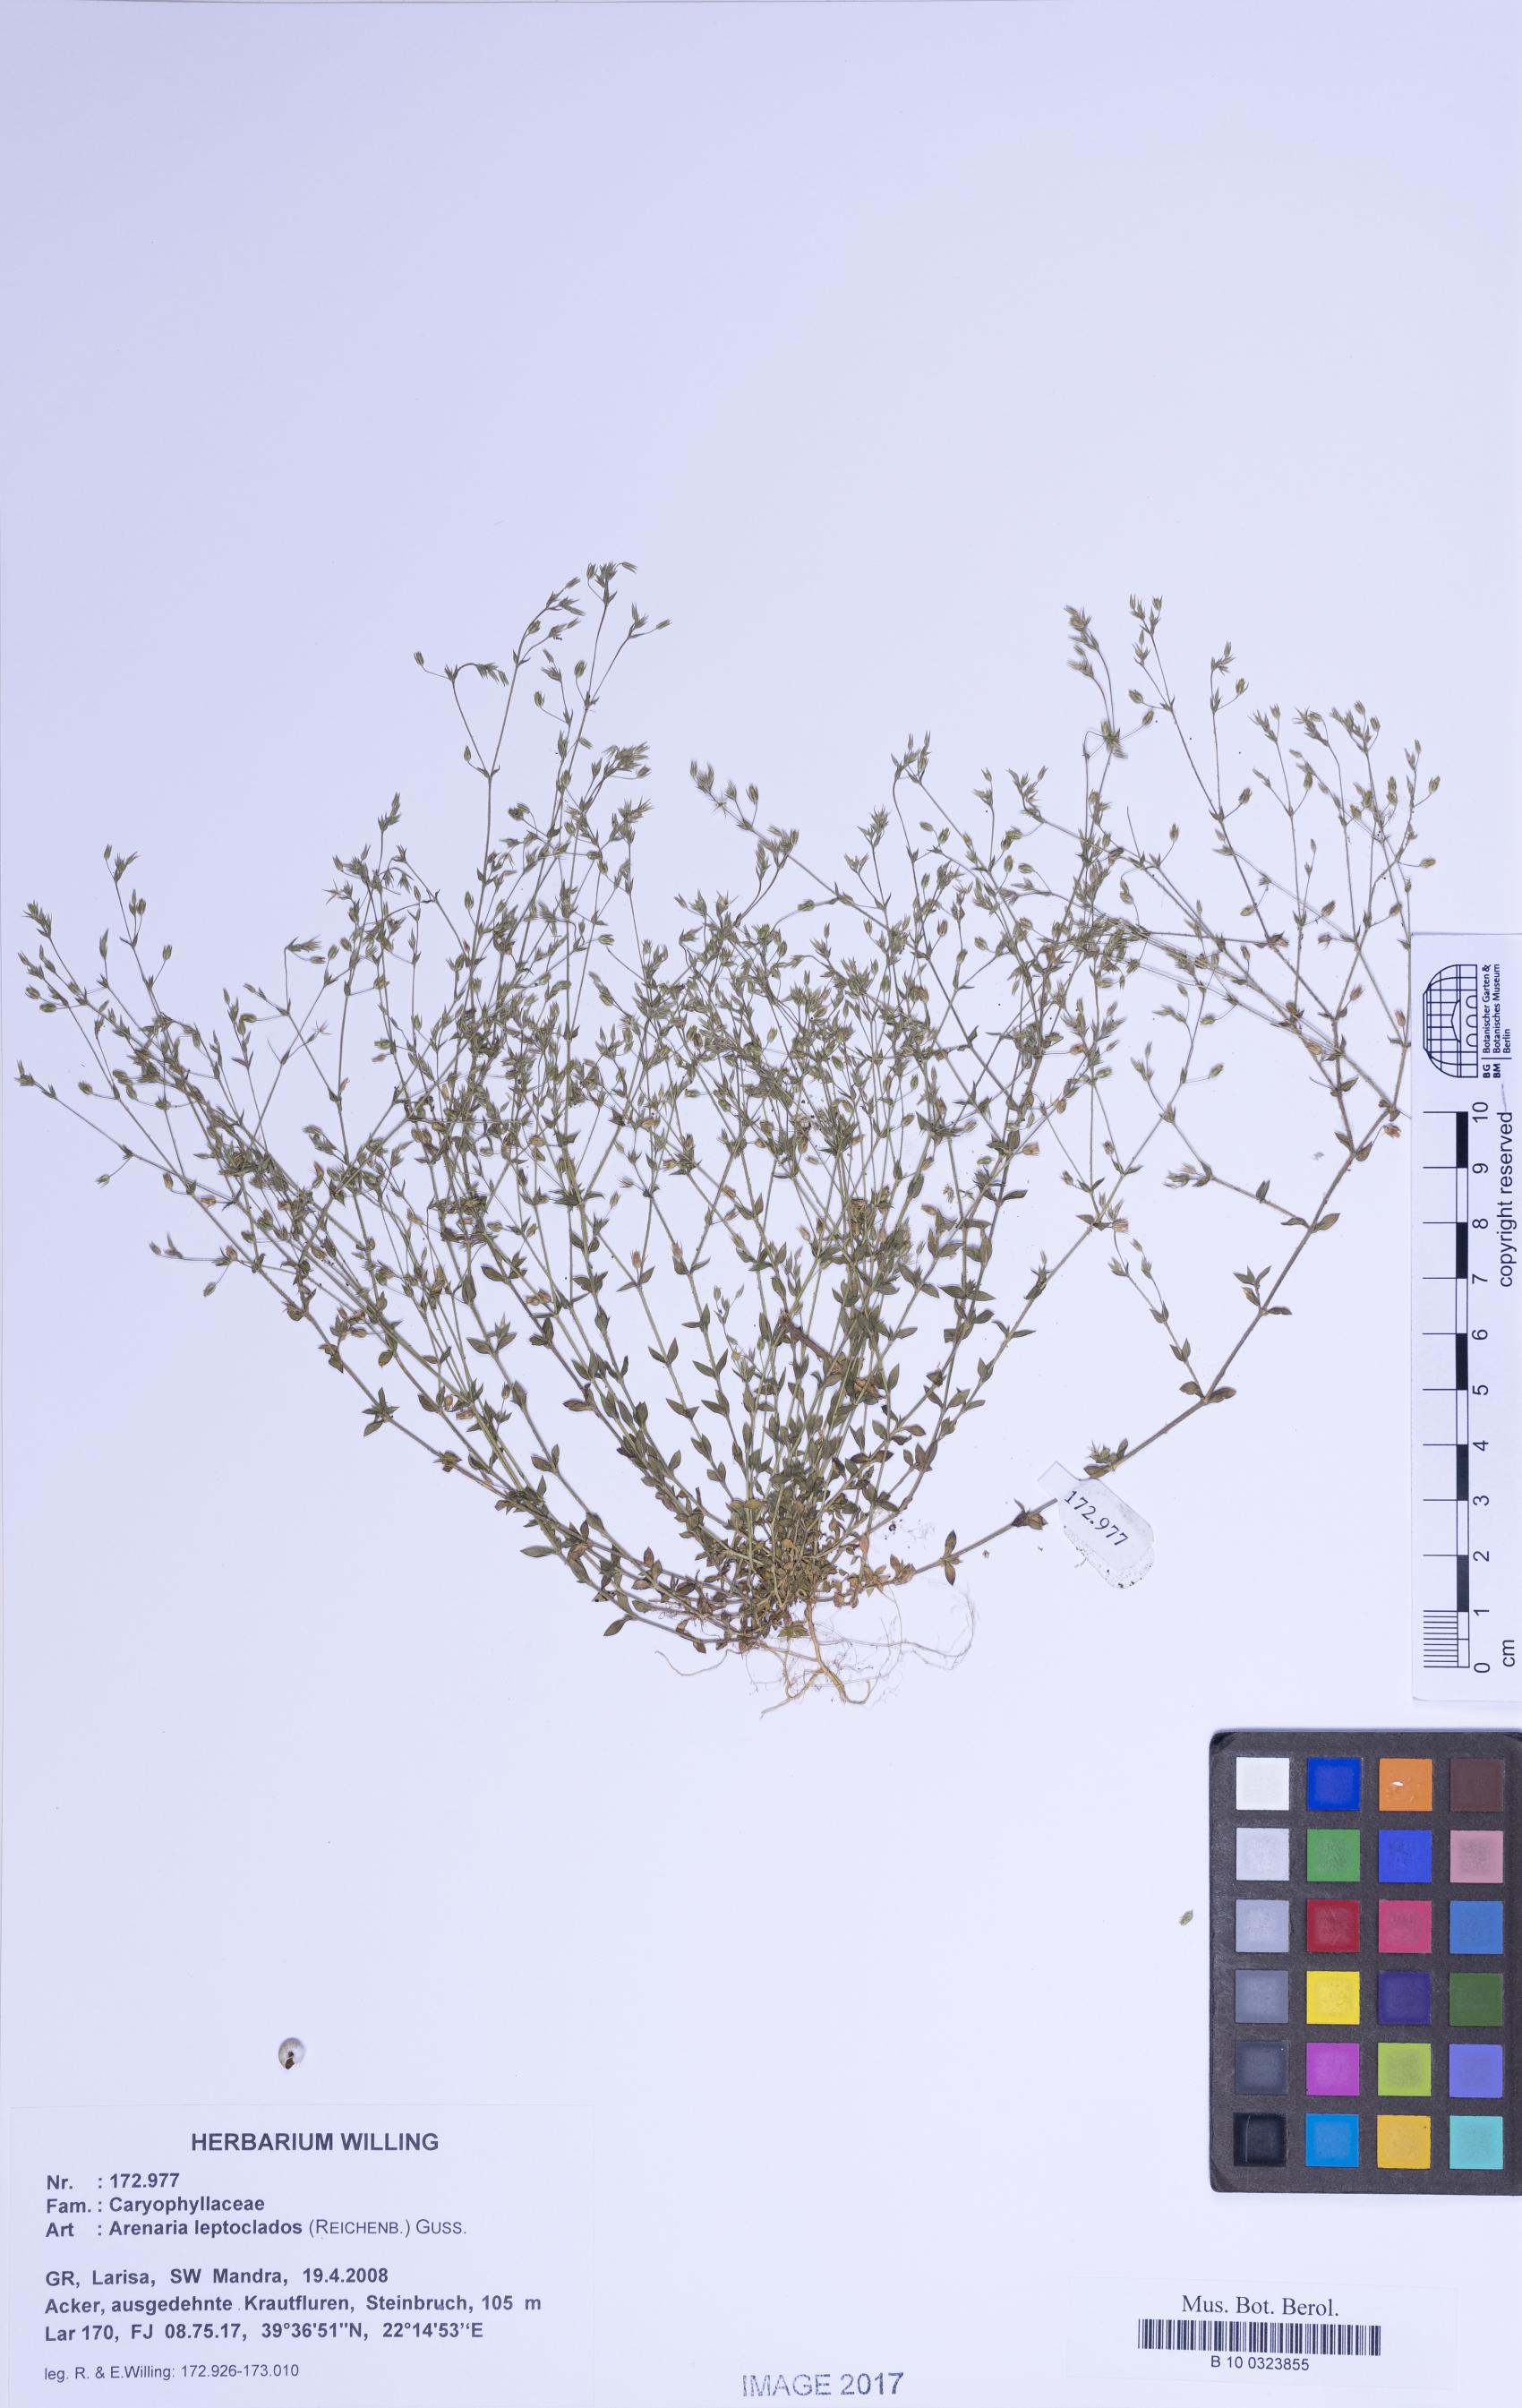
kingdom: Plantae
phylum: Tracheophyta
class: Magnoliopsida
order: Caryophyllales
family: Caryophyllaceae
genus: Arenaria
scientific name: Arenaria leptoclados
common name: Thyme-leaved sandwort
